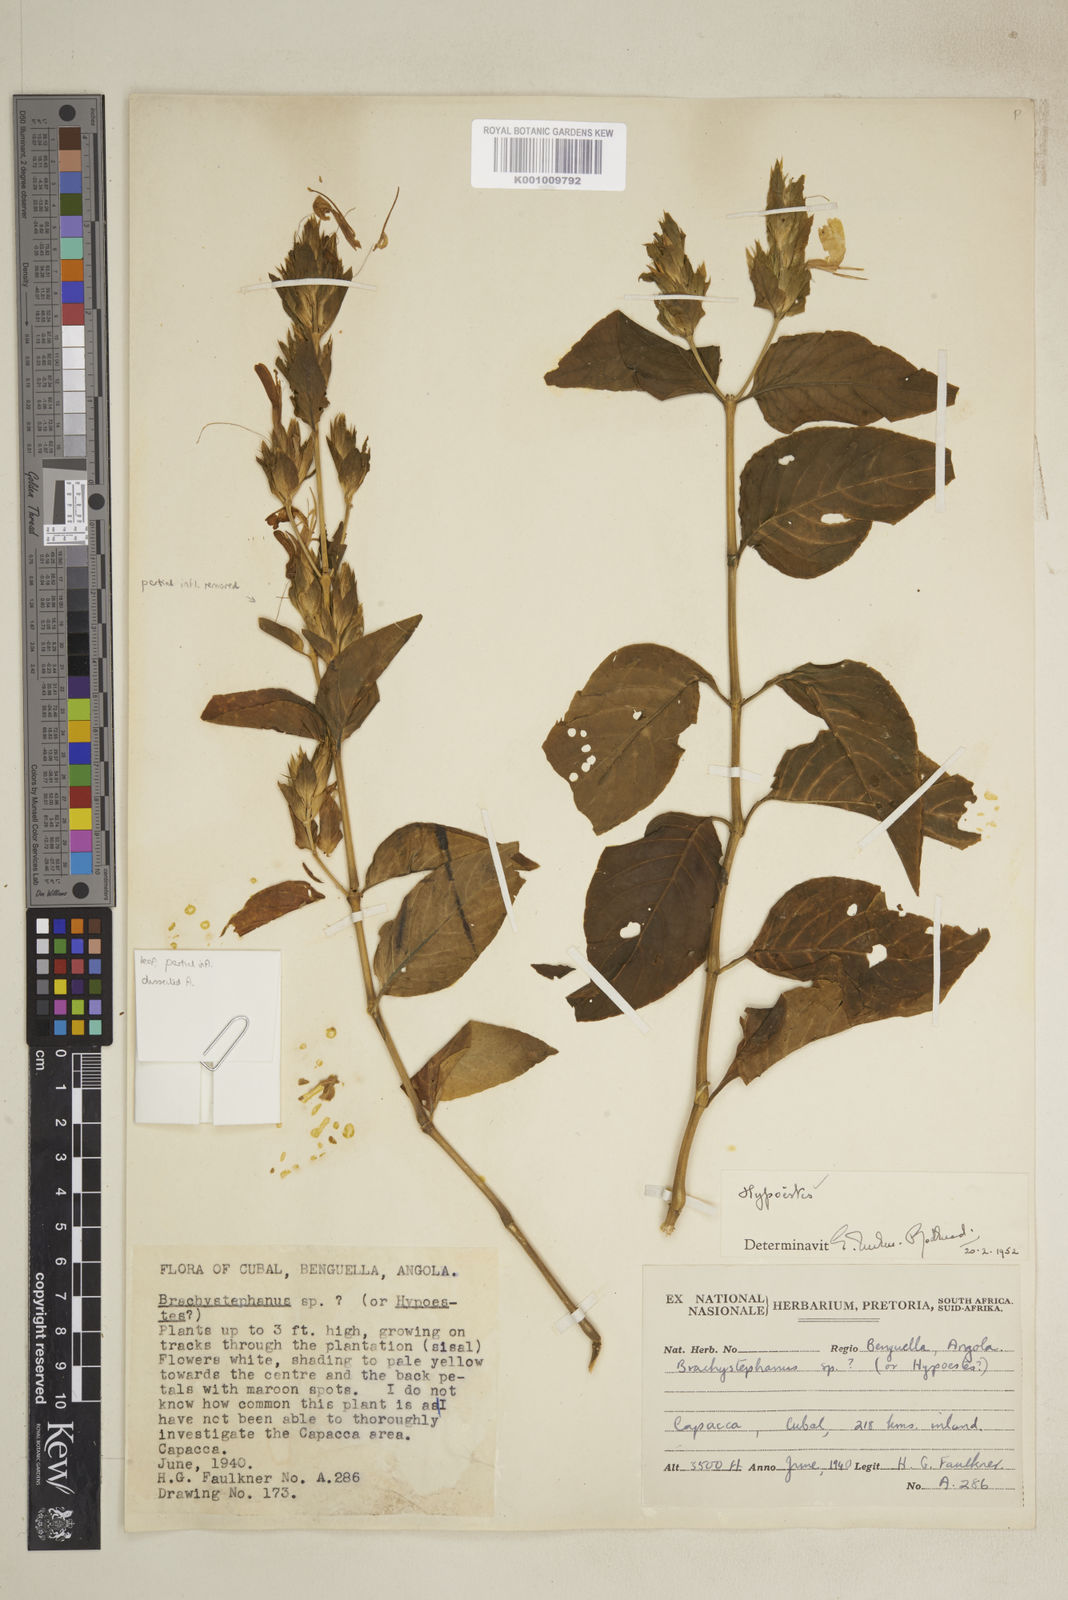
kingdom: Plantae
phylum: Tracheophyta
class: Magnoliopsida
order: Lamiales
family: Acanthaceae
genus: Hypoestes
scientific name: Hypoestes
